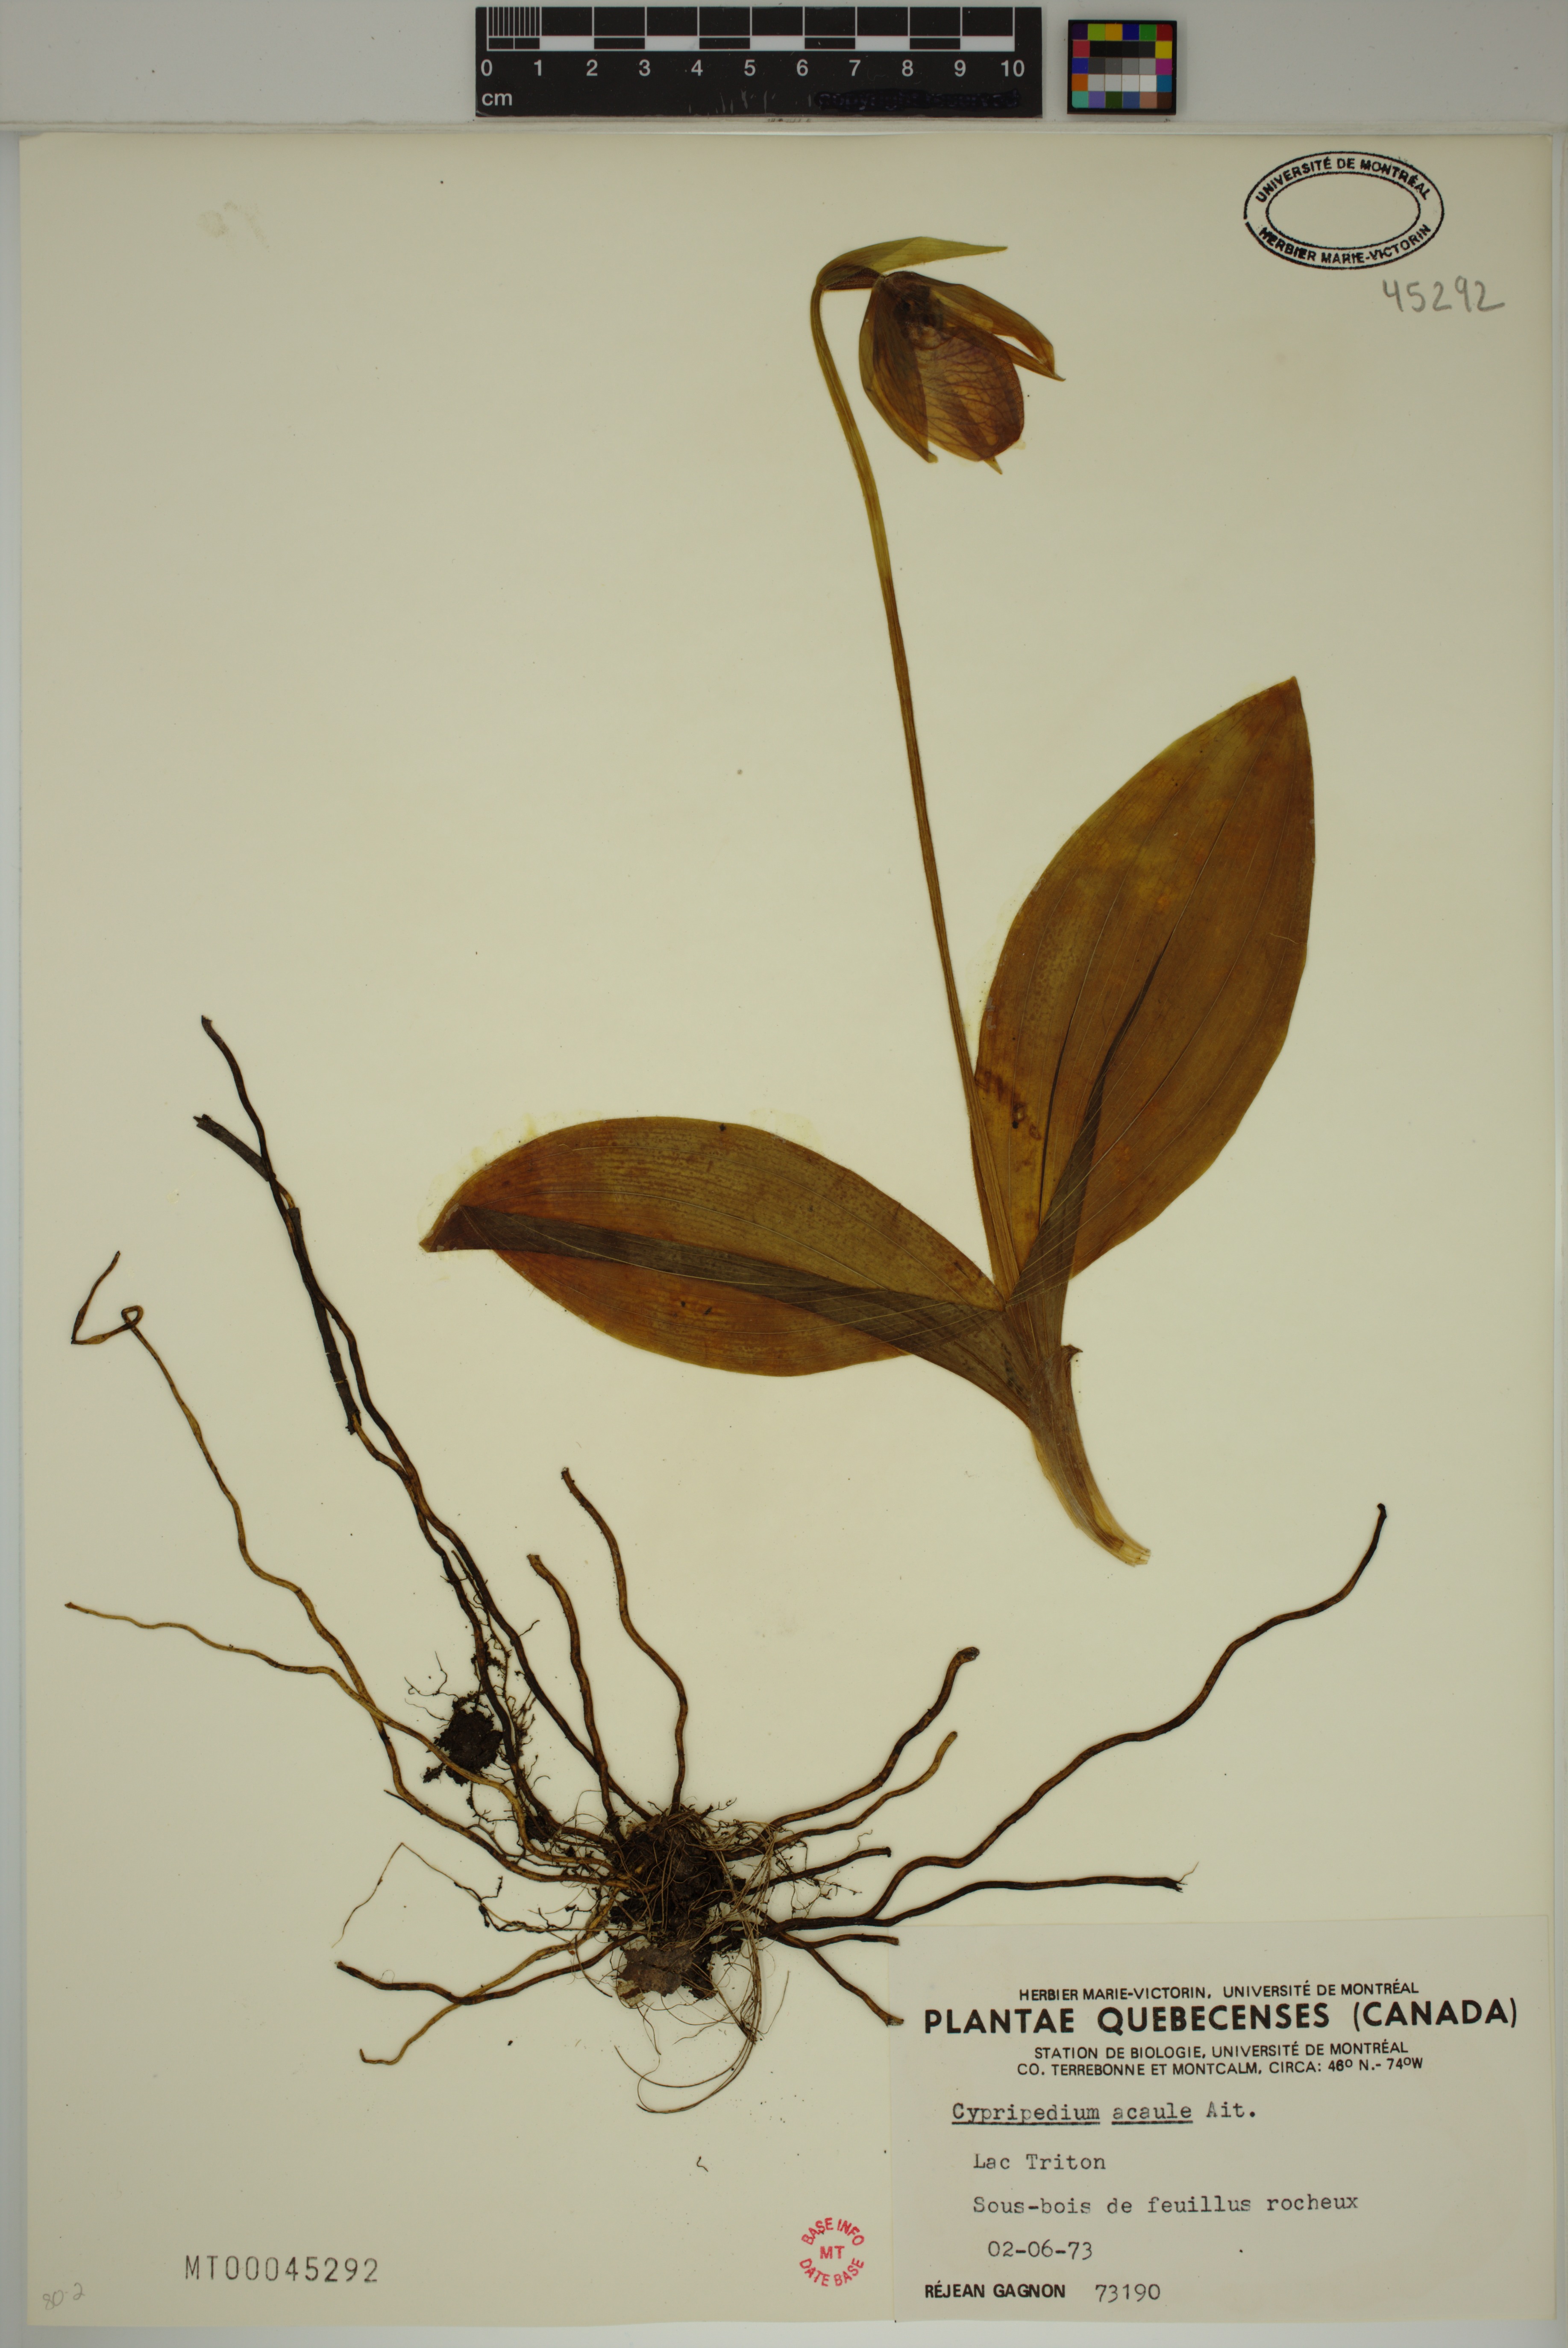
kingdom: Plantae
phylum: Tracheophyta
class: Liliopsida
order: Asparagales
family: Orchidaceae
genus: Cypripedium
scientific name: Cypripedium acaule
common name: Pink lady's-slipper
